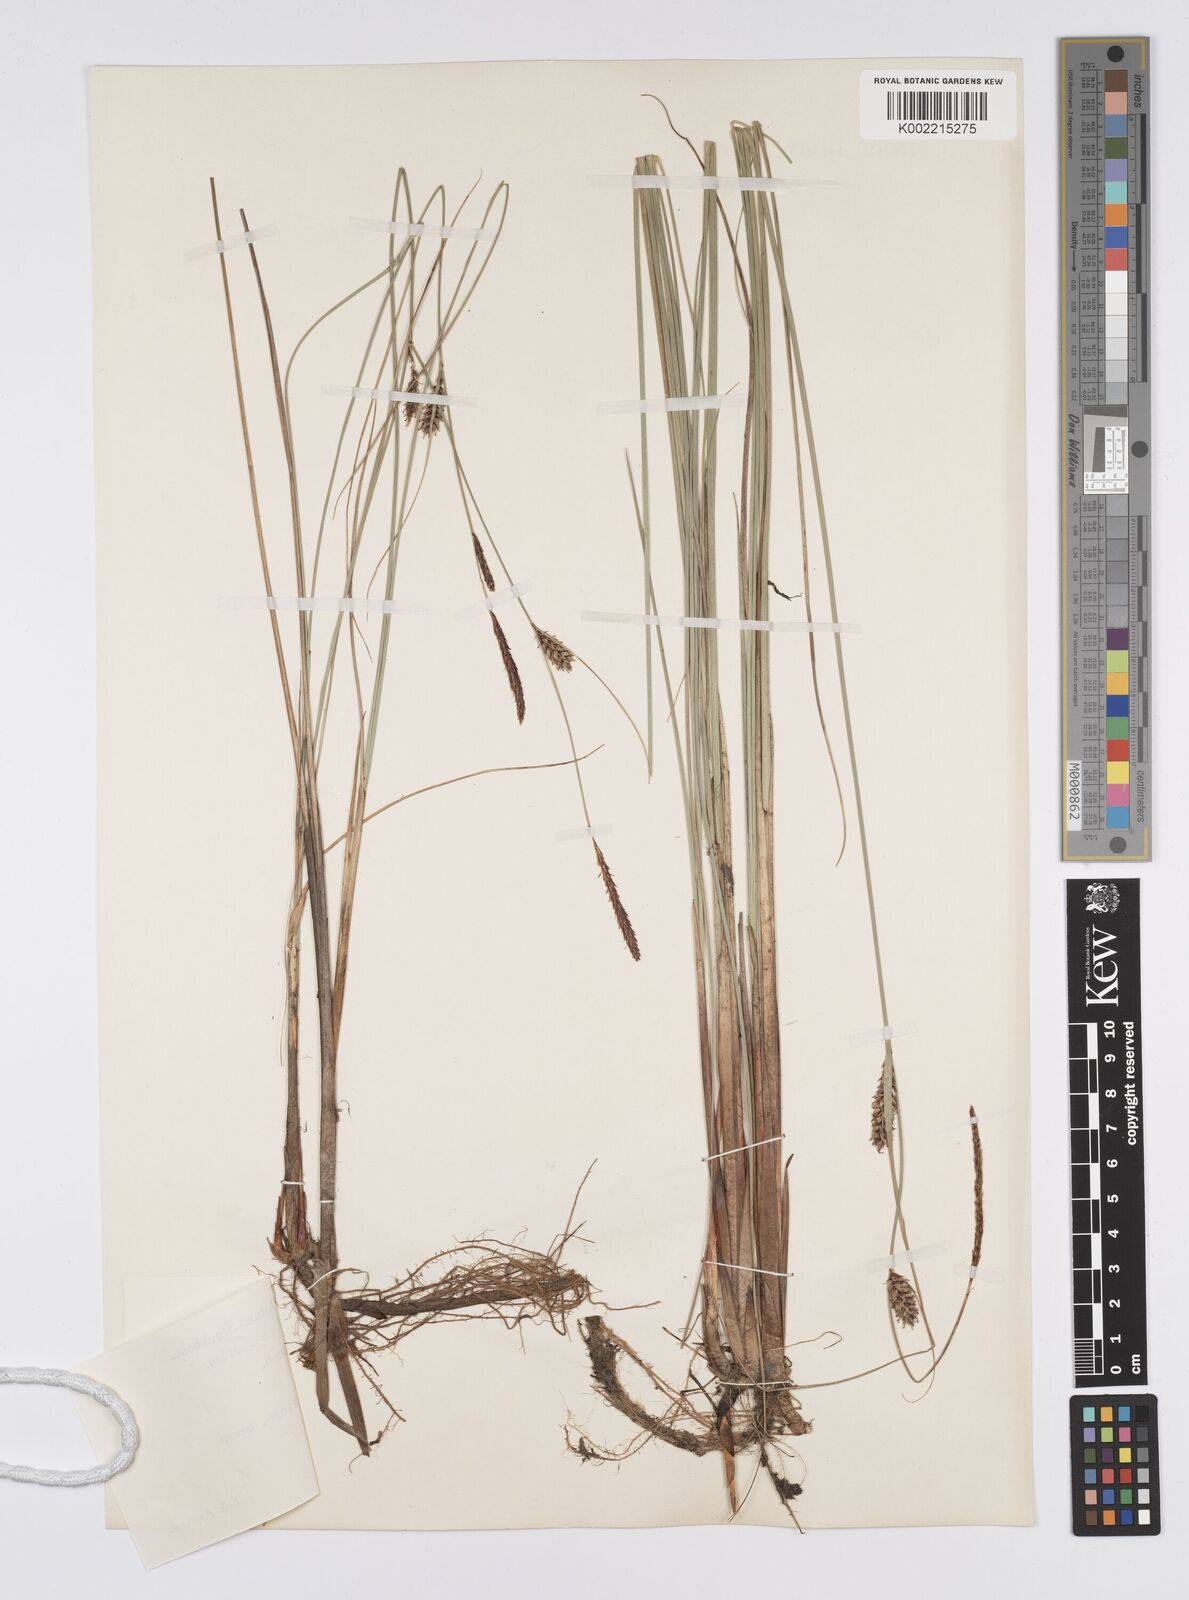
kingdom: Plantae
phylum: Tracheophyta
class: Liliopsida
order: Poales
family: Cyperaceae
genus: Carex
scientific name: Carex lasiocarpa
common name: Slender sedge
